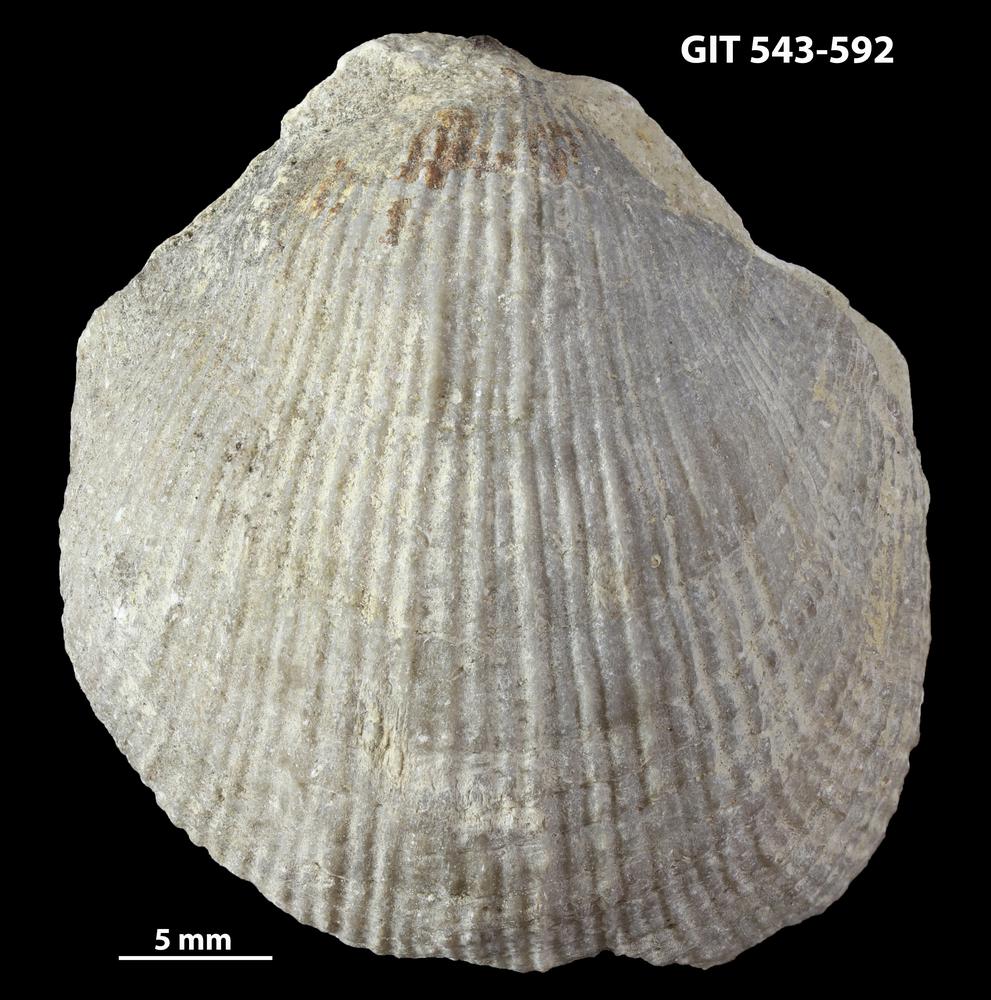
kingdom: Animalia
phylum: Brachiopoda
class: Rhynchonellata
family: Clitambonitidae
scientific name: Clitambonitidae
